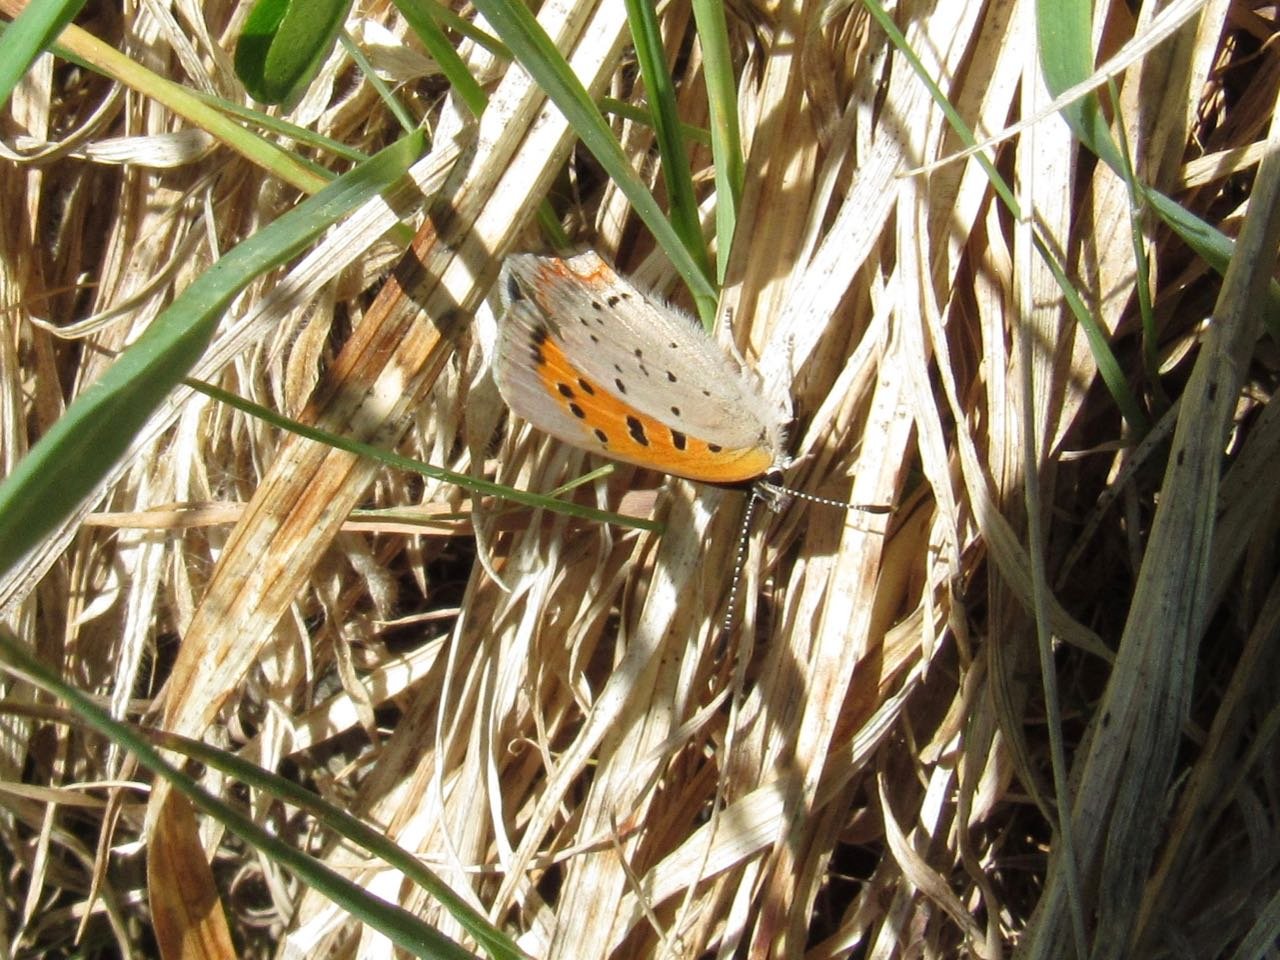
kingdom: Animalia
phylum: Arthropoda
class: Insecta
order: Lepidoptera
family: Lycaenidae
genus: Lycaena
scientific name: Lycaena phlaeas
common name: American Copper
